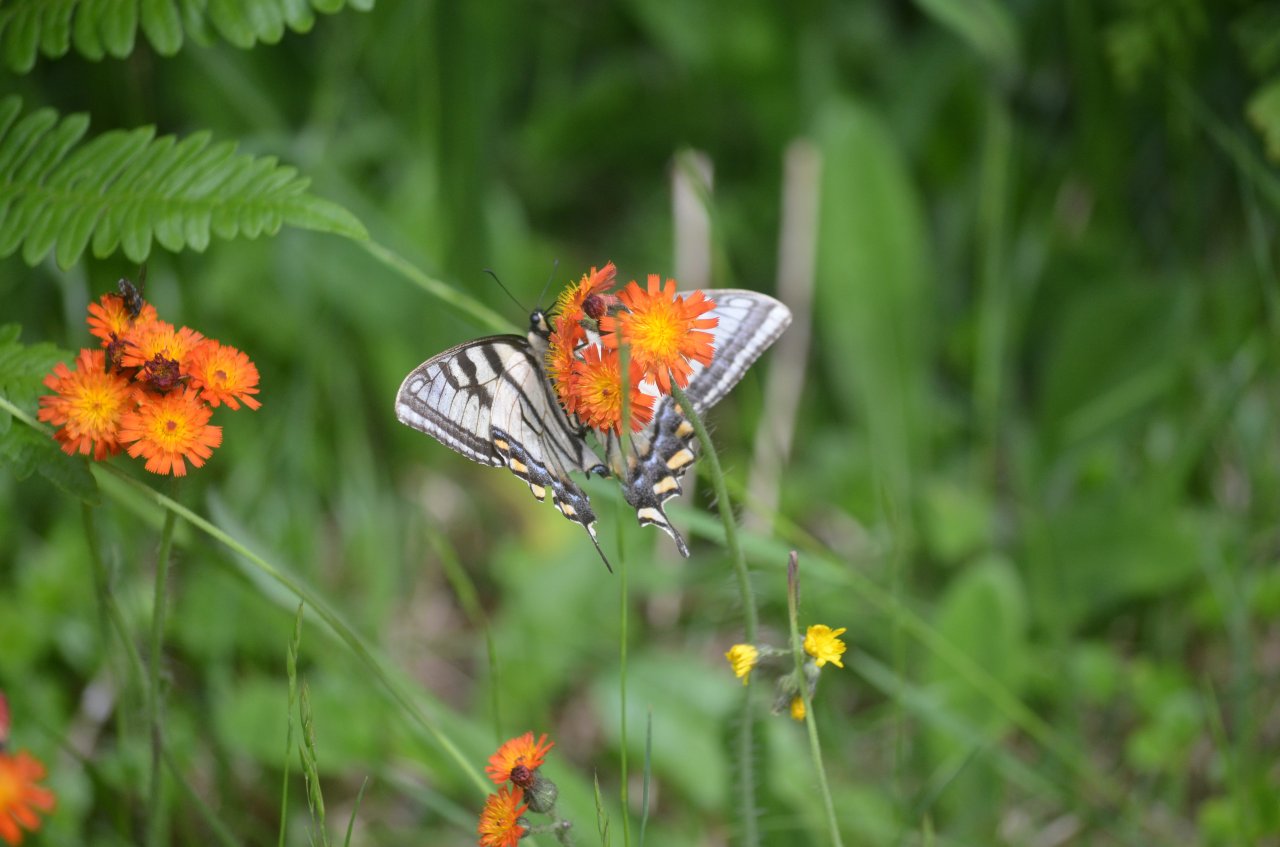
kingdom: Animalia
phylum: Arthropoda
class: Insecta
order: Lepidoptera
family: Papilionidae
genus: Pterourus
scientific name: Pterourus canadensis
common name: Canadian Tiger Swallowtail
